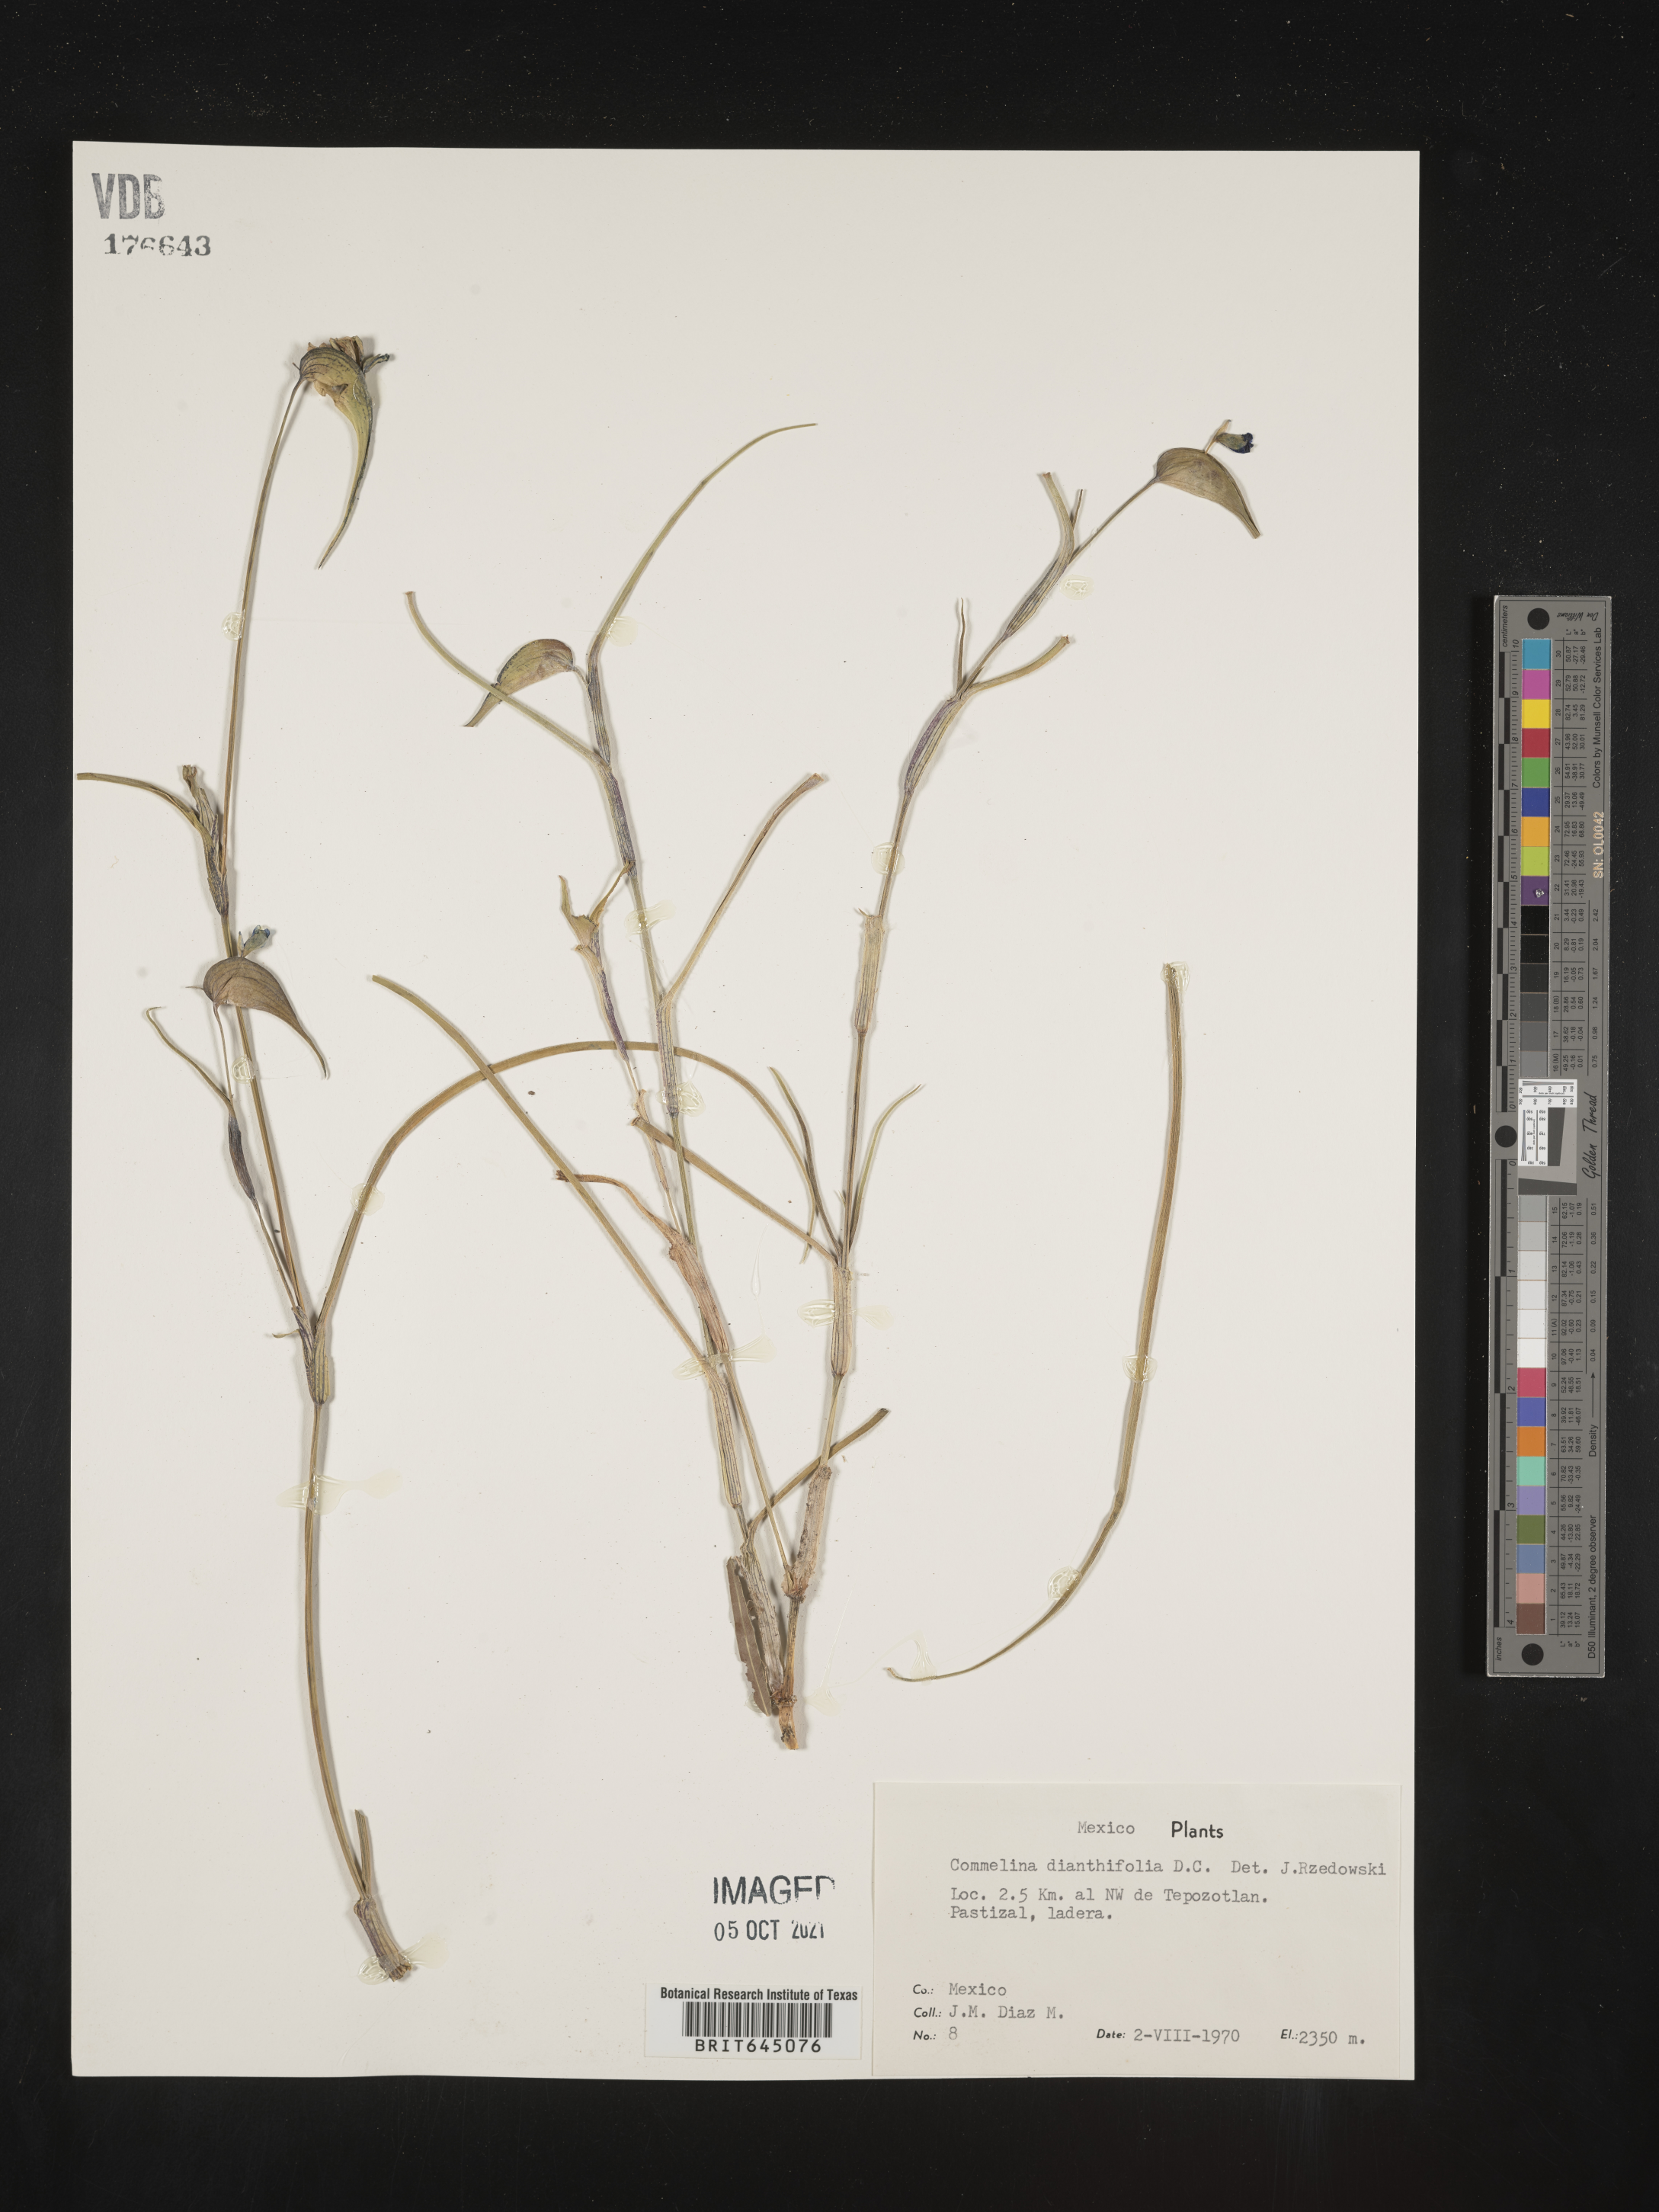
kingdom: Plantae
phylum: Tracheophyta
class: Liliopsida
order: Commelinales
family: Commelinaceae
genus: Commelina
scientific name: Commelina
